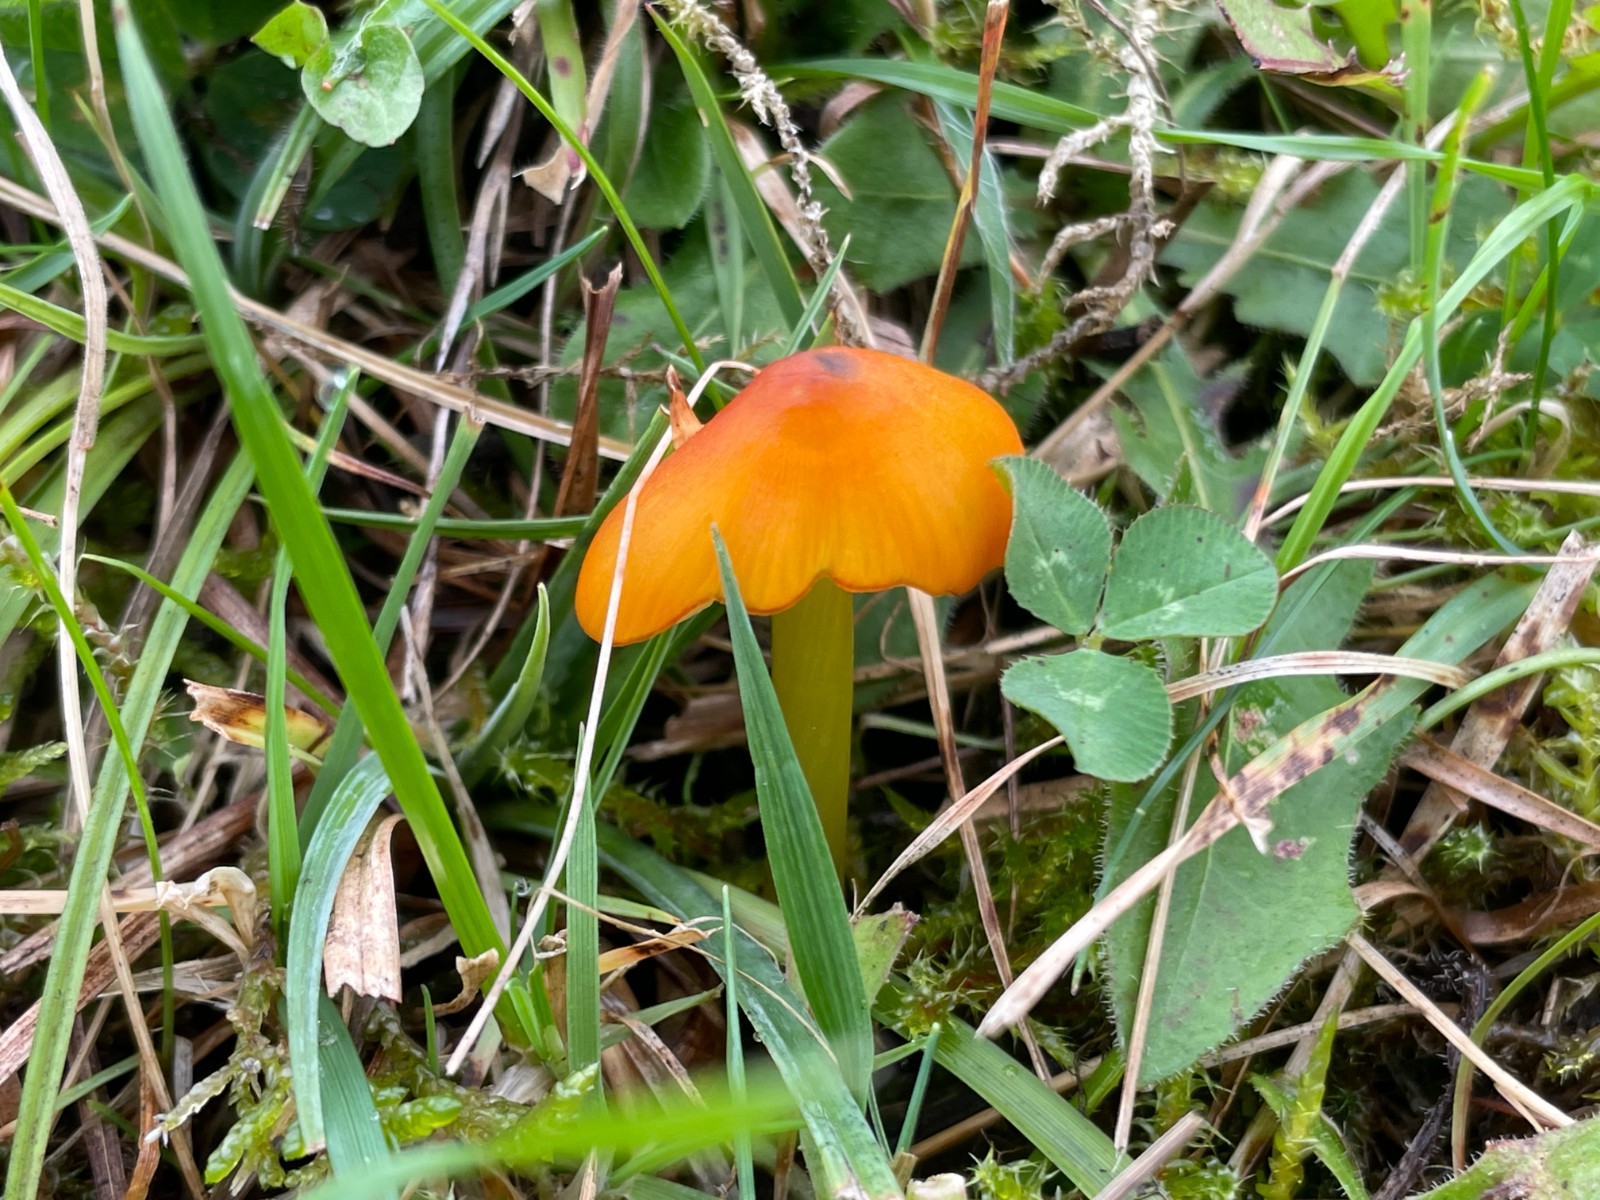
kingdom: Fungi
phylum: Basidiomycota
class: Agaricomycetes
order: Agaricales
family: Hygrophoraceae
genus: Hygrocybe
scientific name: Hygrocybe conica
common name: kegle-vokshat
